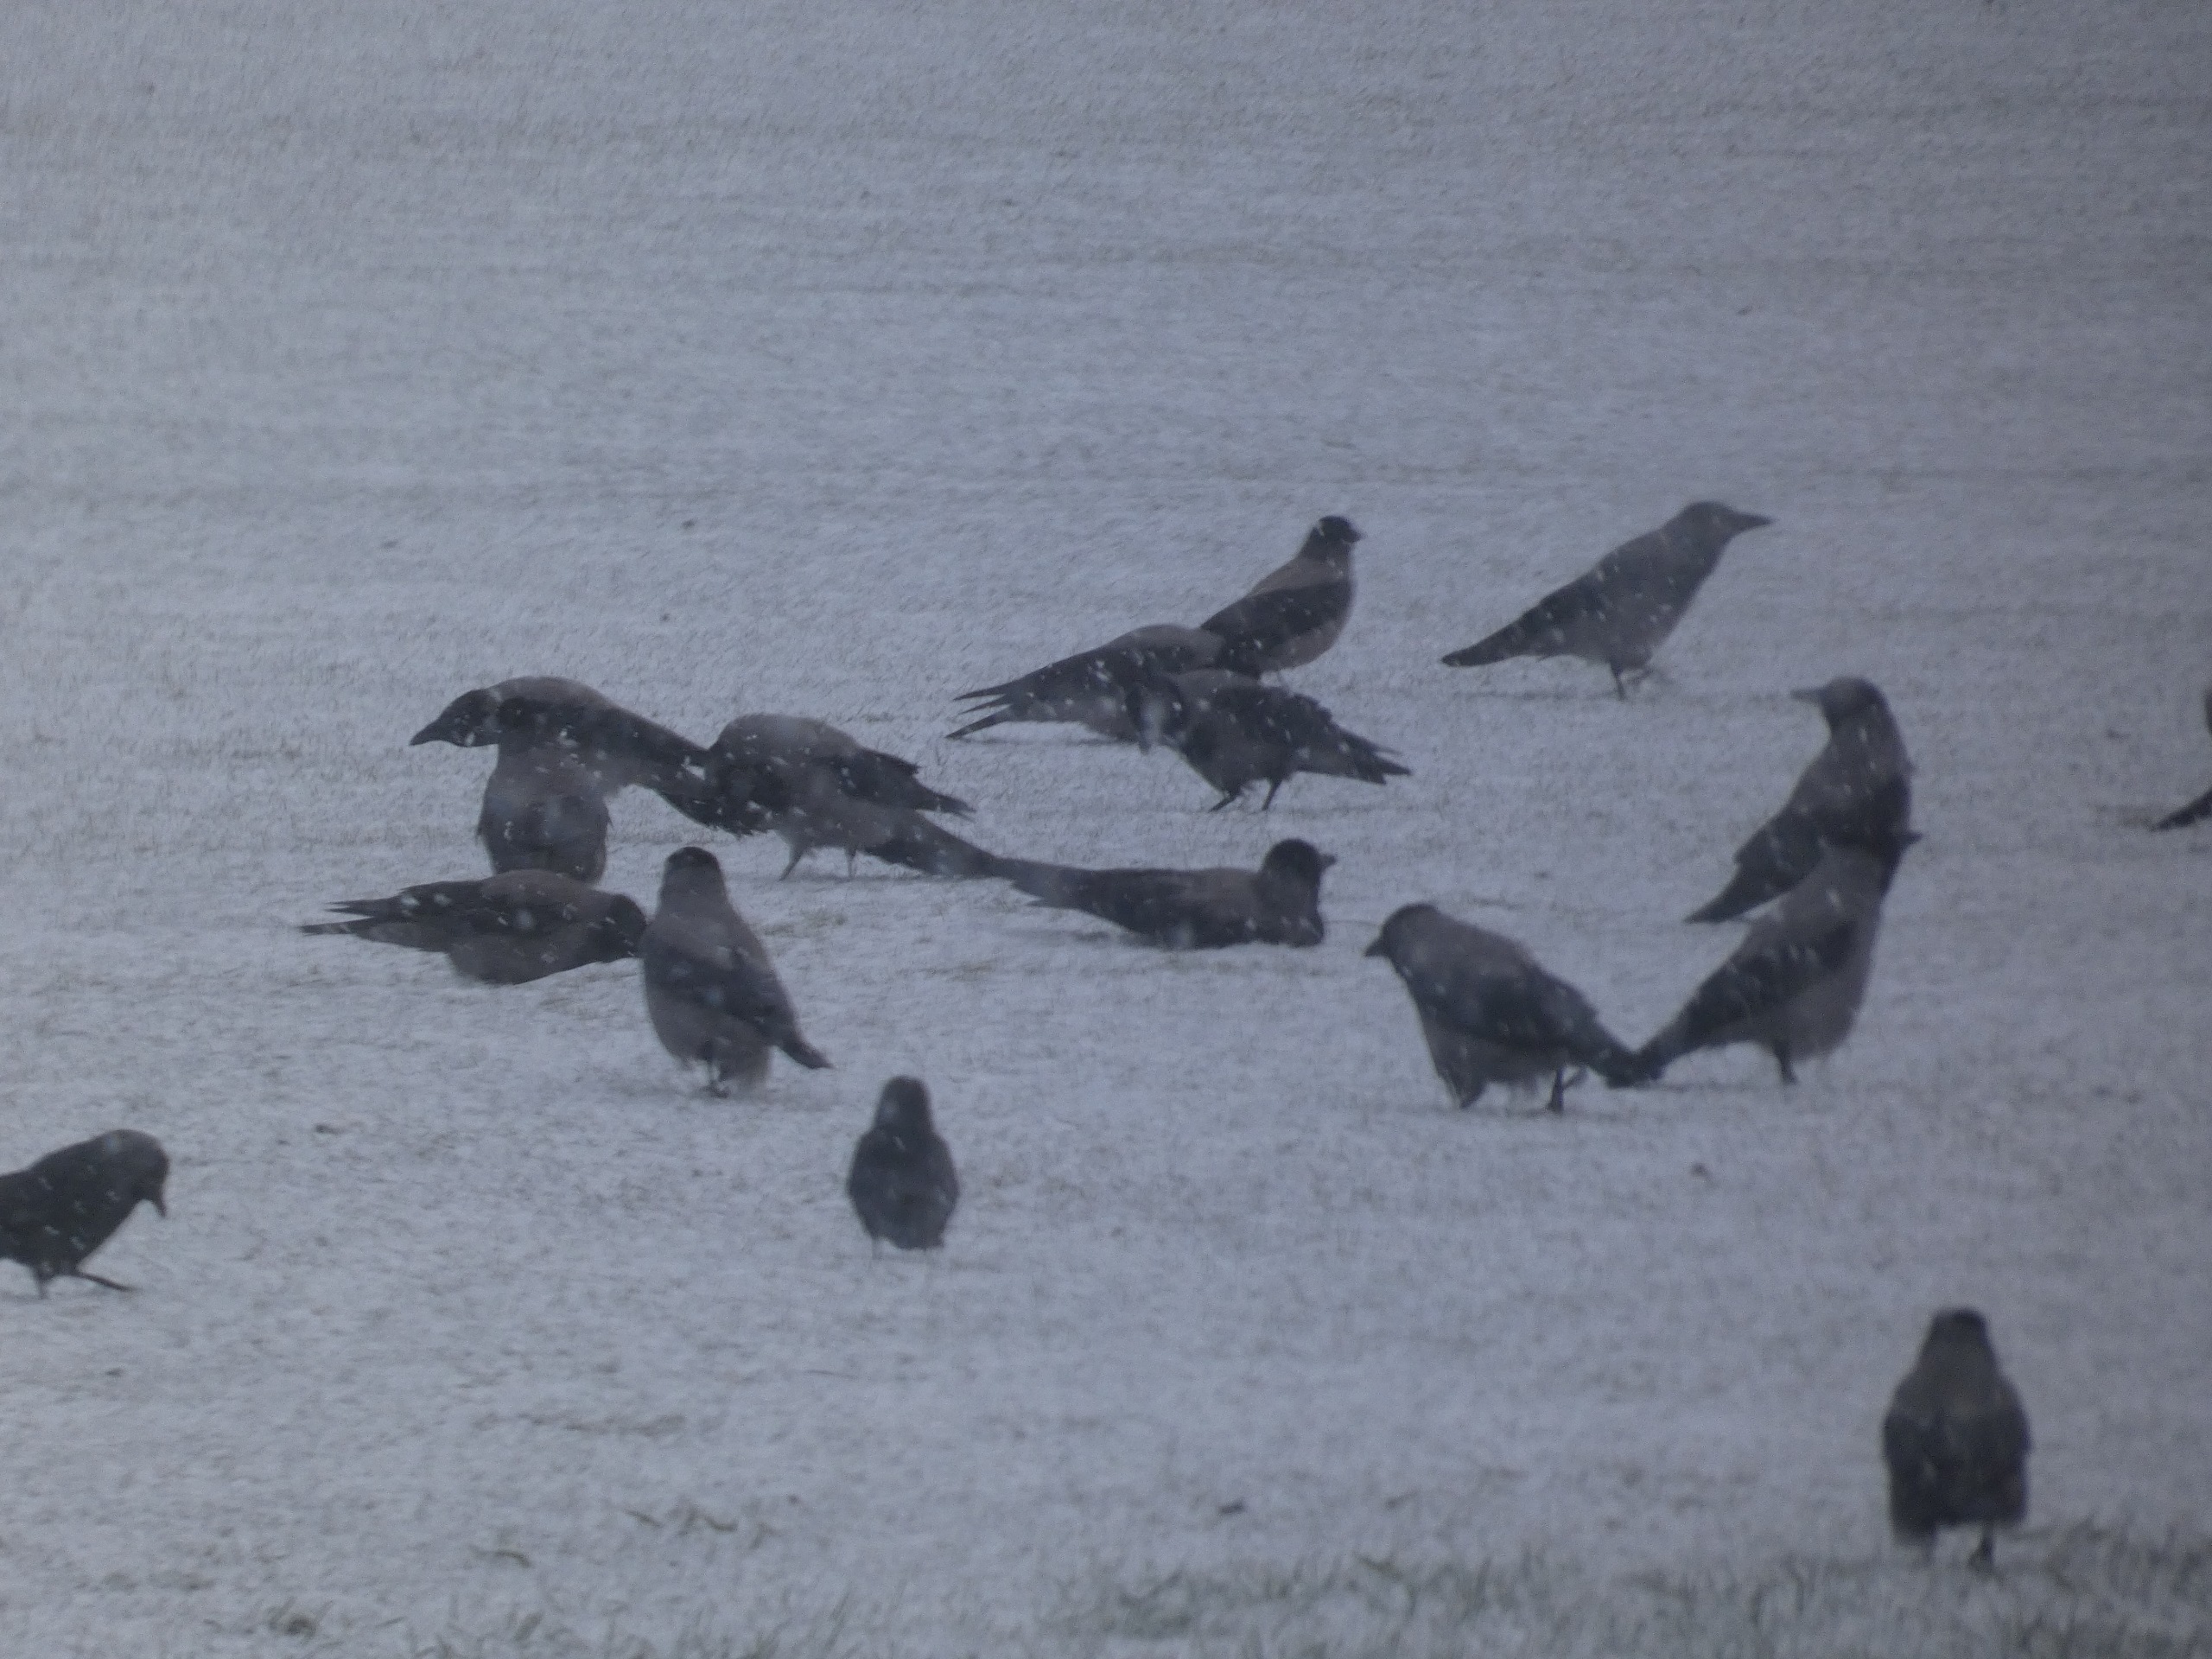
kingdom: Animalia
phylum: Chordata
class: Aves
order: Passeriformes
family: Corvidae
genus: Corvus
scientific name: Corvus cornix
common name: Gråkrage
